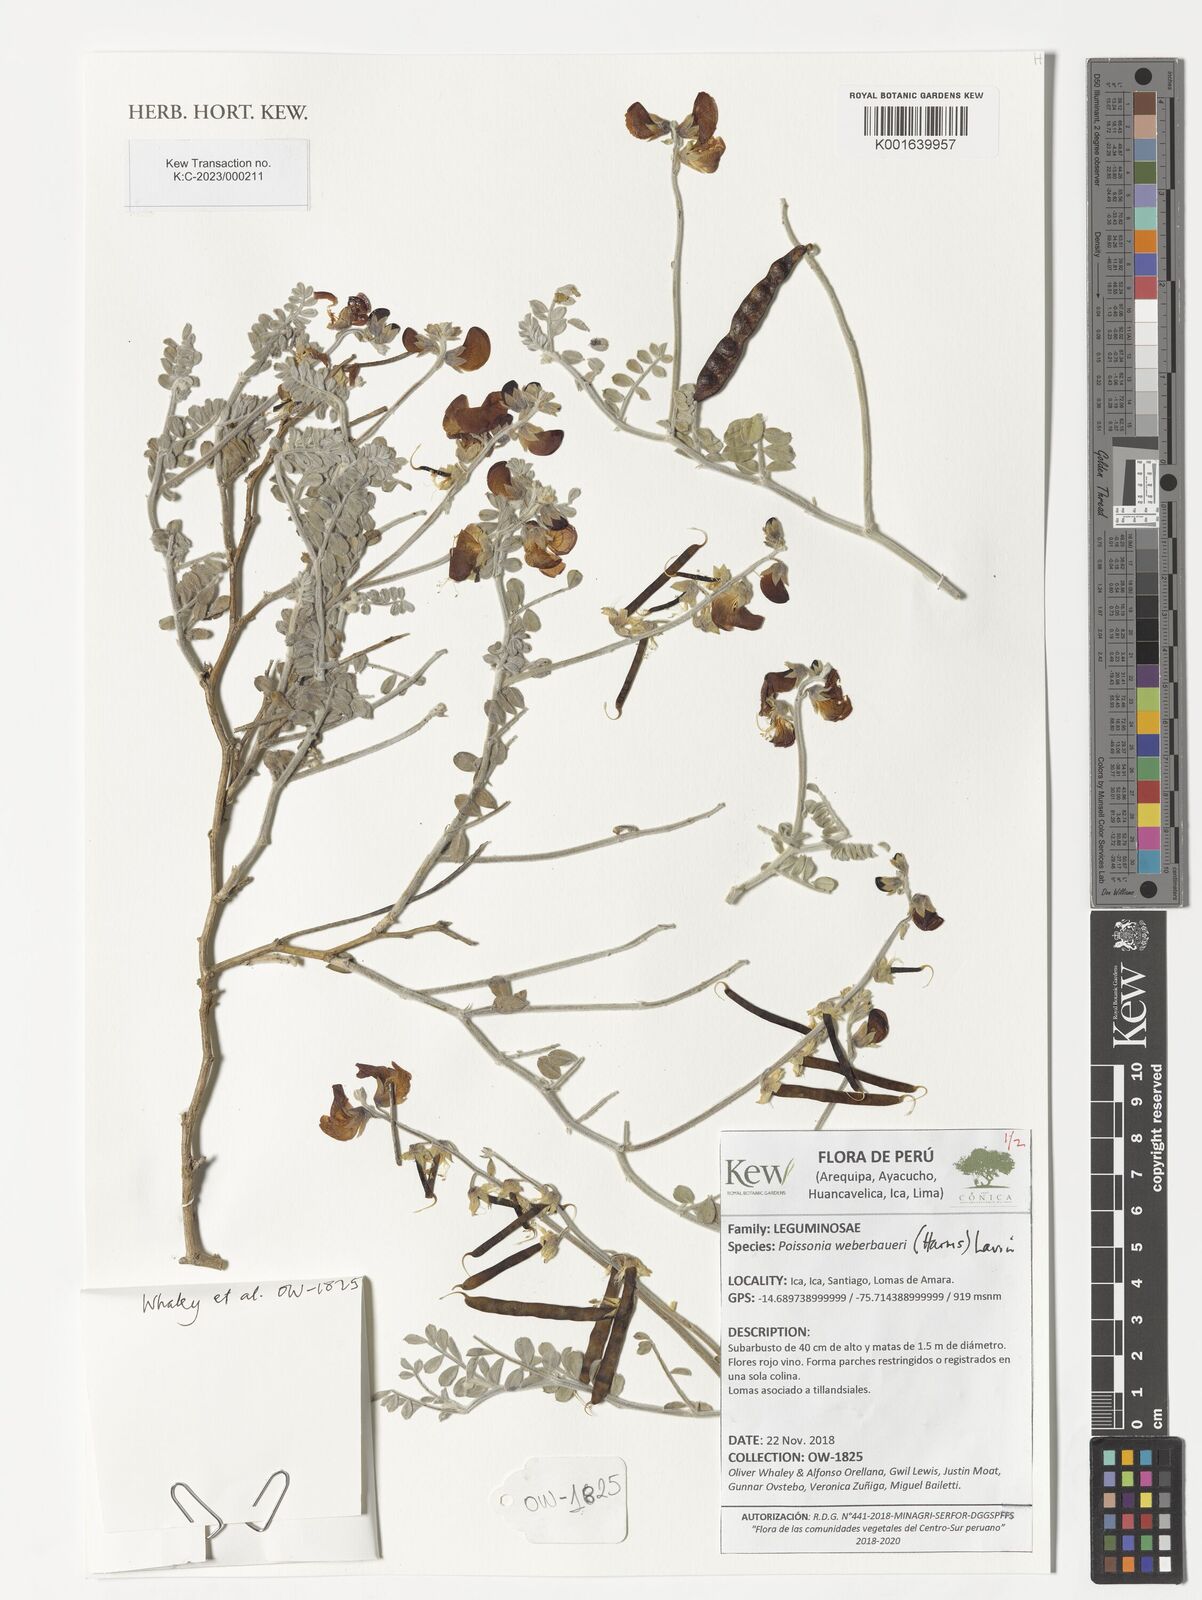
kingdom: Plantae
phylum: Tracheophyta
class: Magnoliopsida
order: Fabales
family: Fabaceae
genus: Poissonia
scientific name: Poissonia weberbaueri
